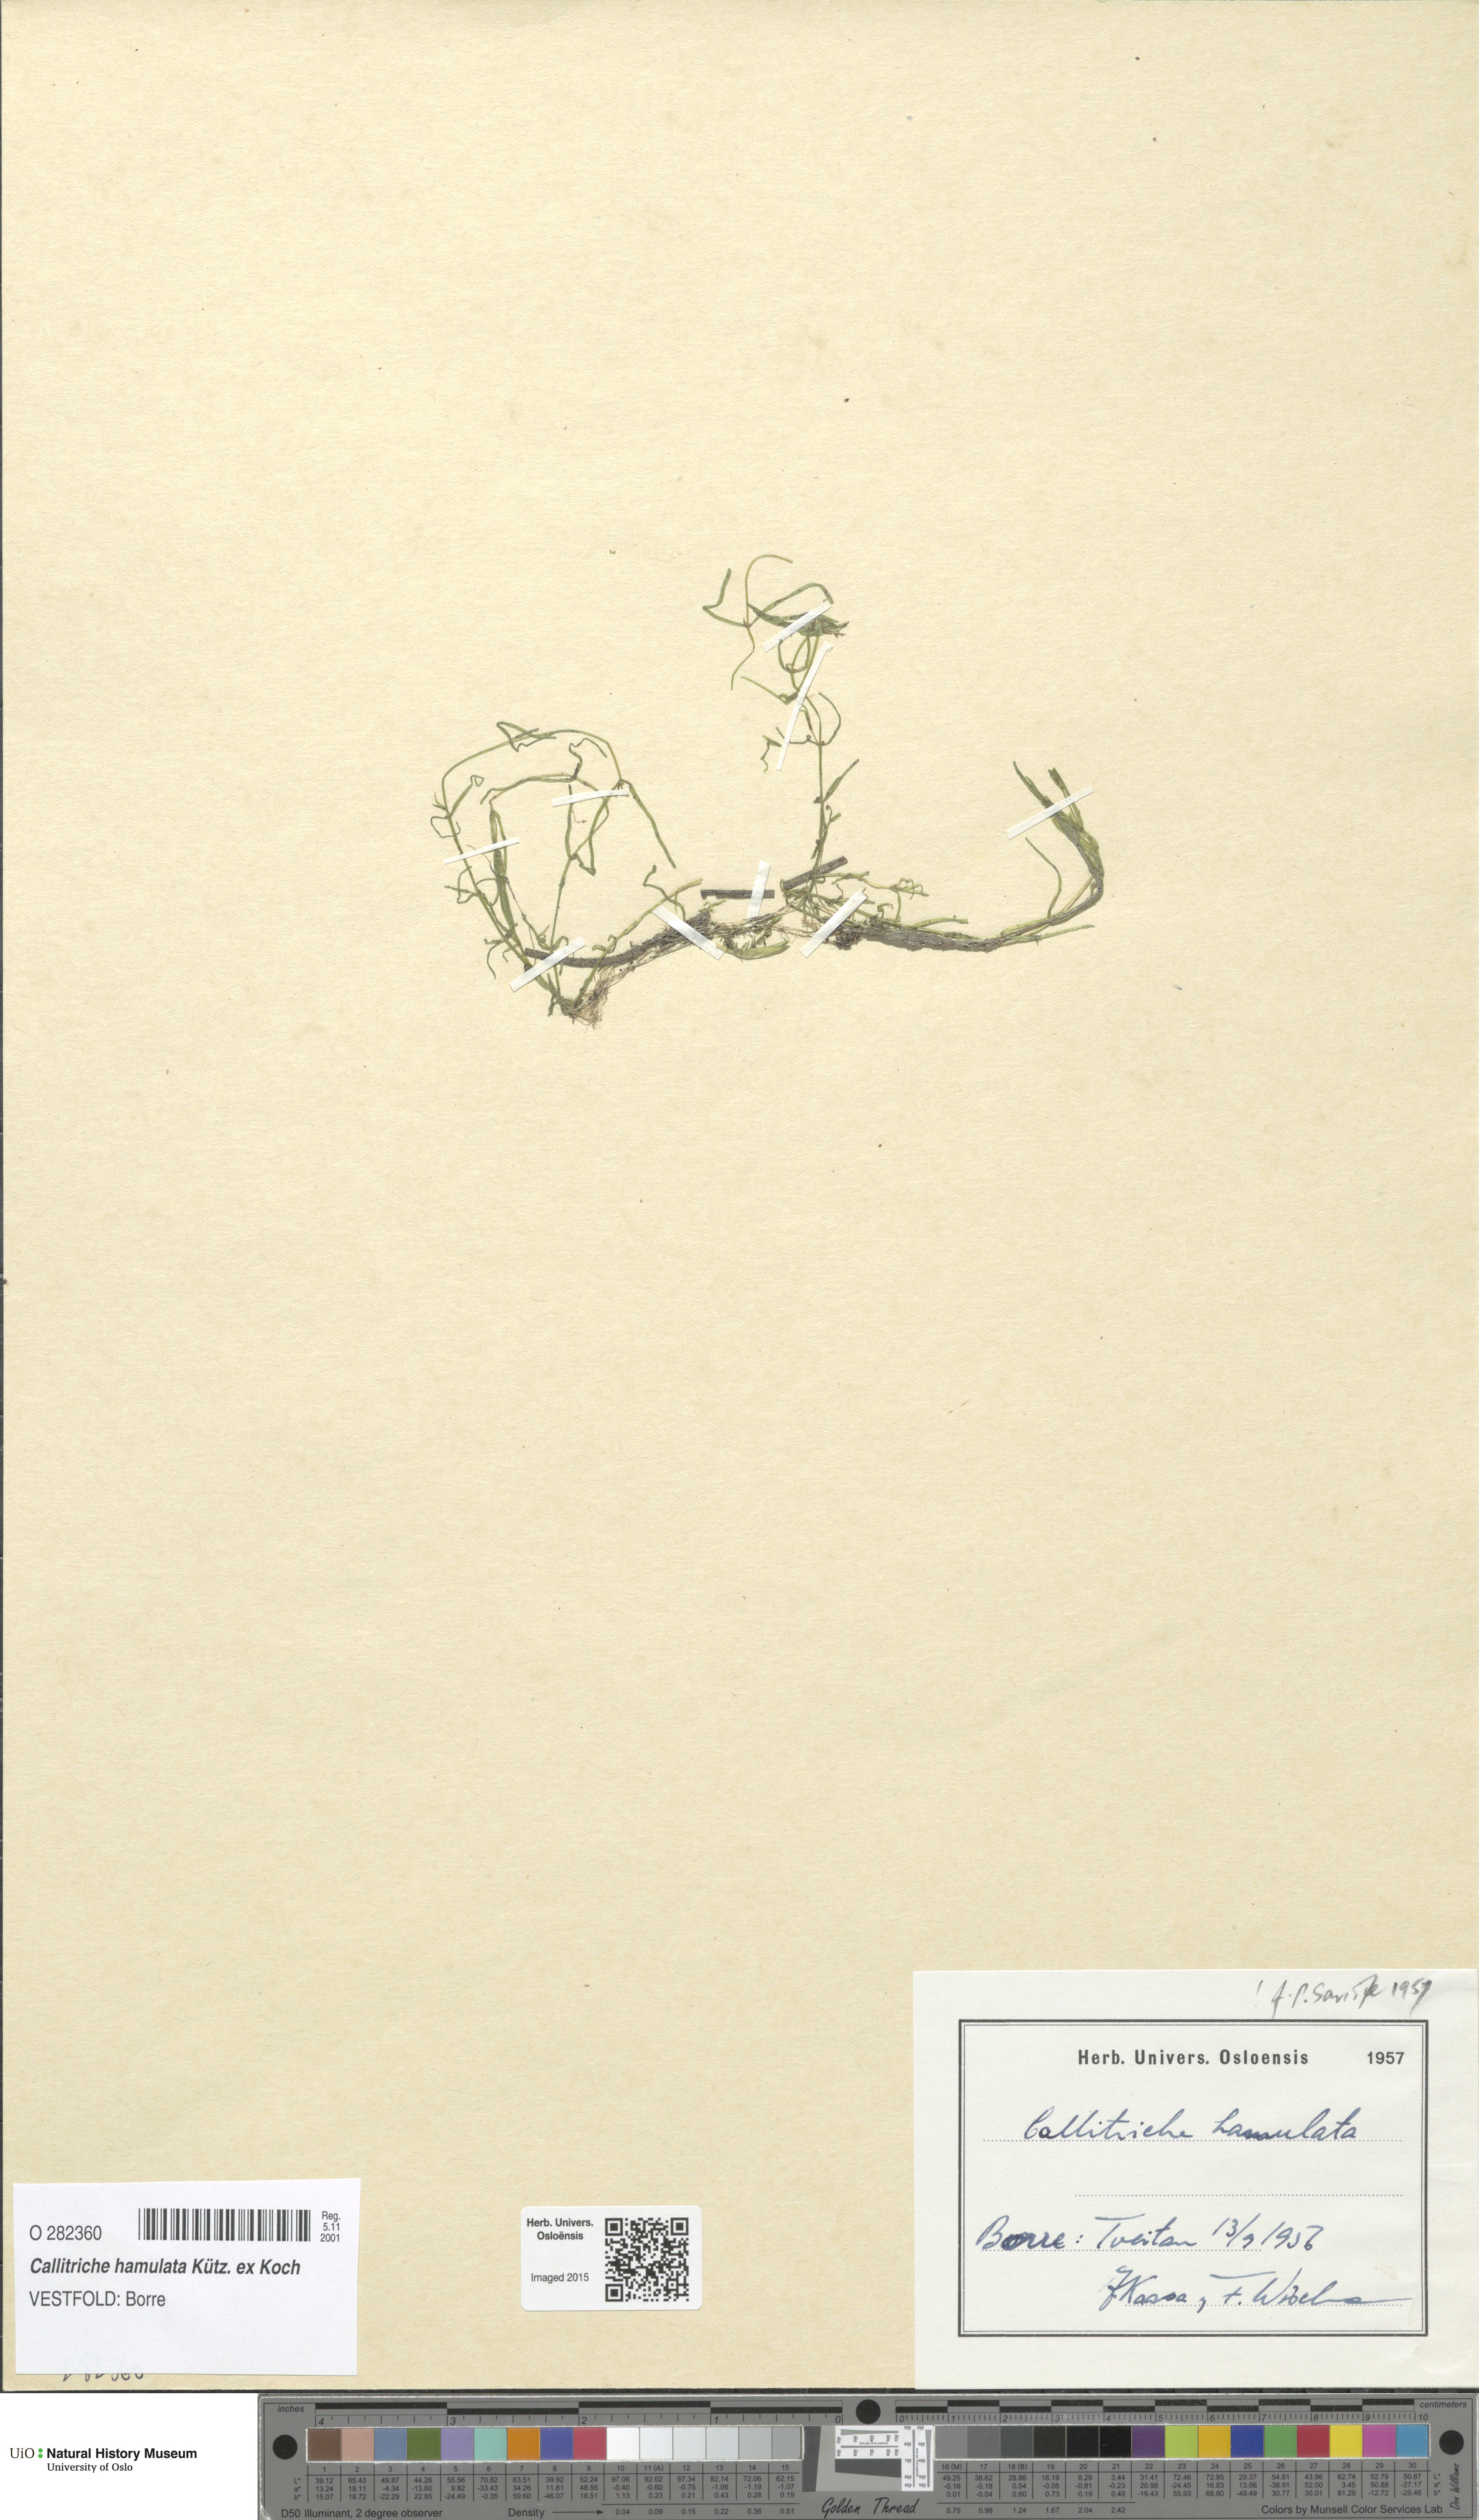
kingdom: Plantae
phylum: Tracheophyta
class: Magnoliopsida
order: Lamiales
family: Plantaginaceae
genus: Callitriche
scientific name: Callitriche hamulata
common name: Intermediate water-starwort
